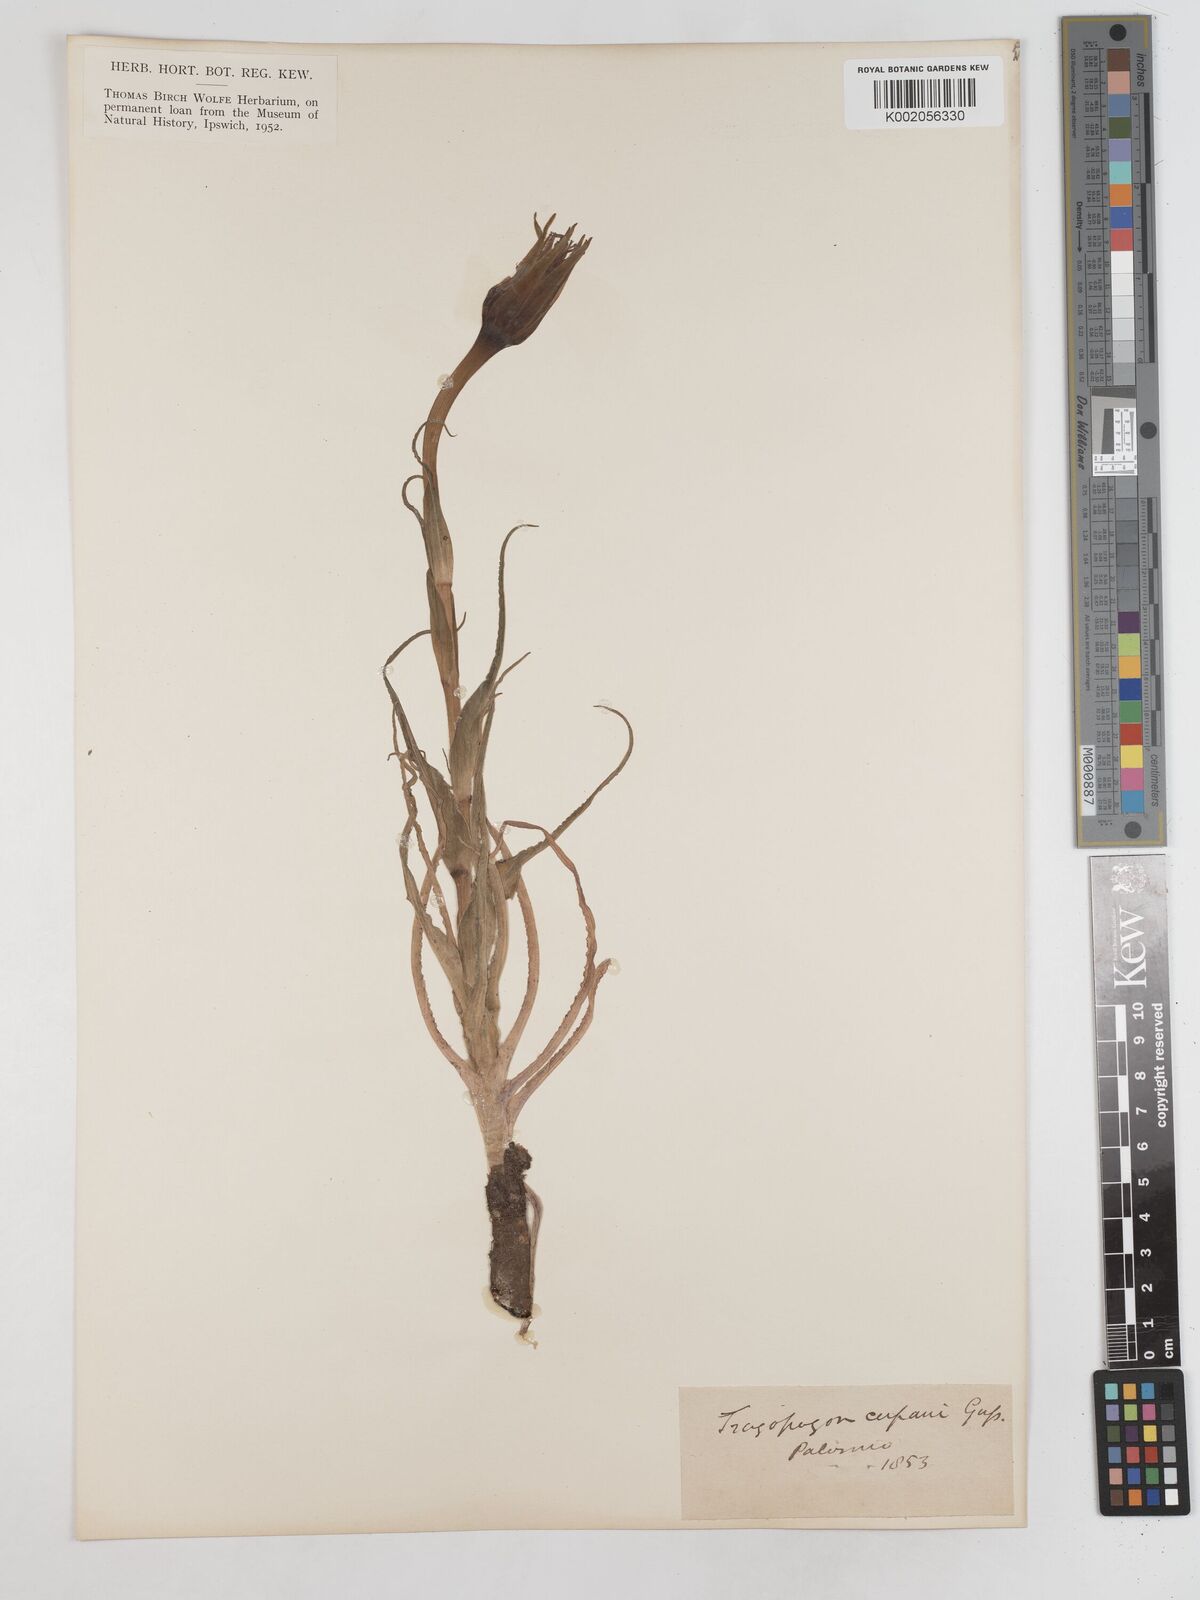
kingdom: Plantae
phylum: Tracheophyta
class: Magnoliopsida
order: Asterales
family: Asteraceae
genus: Tragopogon
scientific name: Tragopogon porrifolius
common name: Salsify
